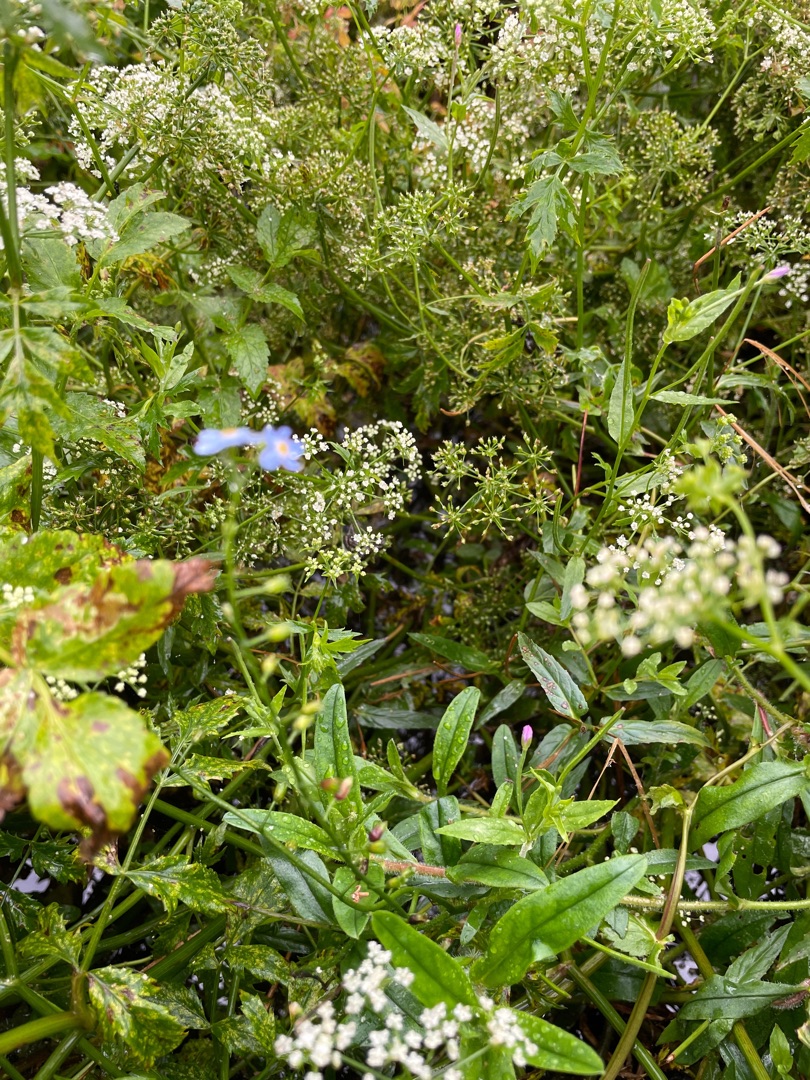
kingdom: Plantae
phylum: Tracheophyta
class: Magnoliopsida
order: Boraginales
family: Boraginaceae
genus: Myosotis
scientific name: Myosotis scorpioides
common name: Eng-forglemmigej
